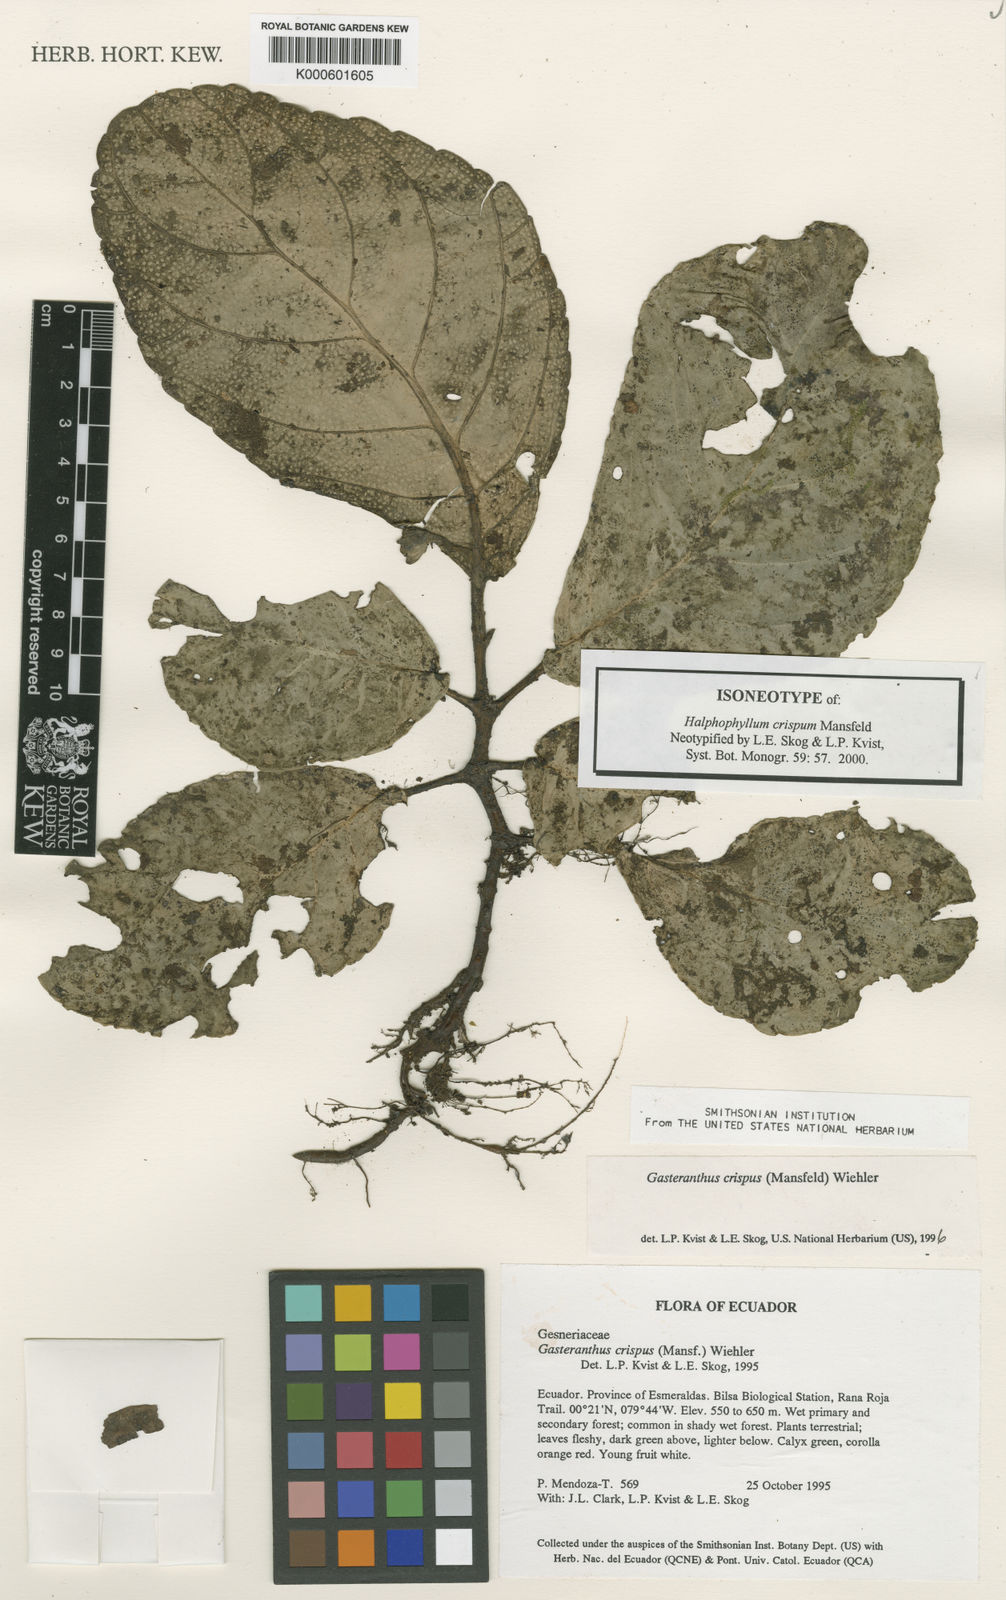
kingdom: Plantae
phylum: Tracheophyta
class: Magnoliopsida
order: Lamiales
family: Gesneriaceae
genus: Gasteranthus
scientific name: Gasteranthus crispus
